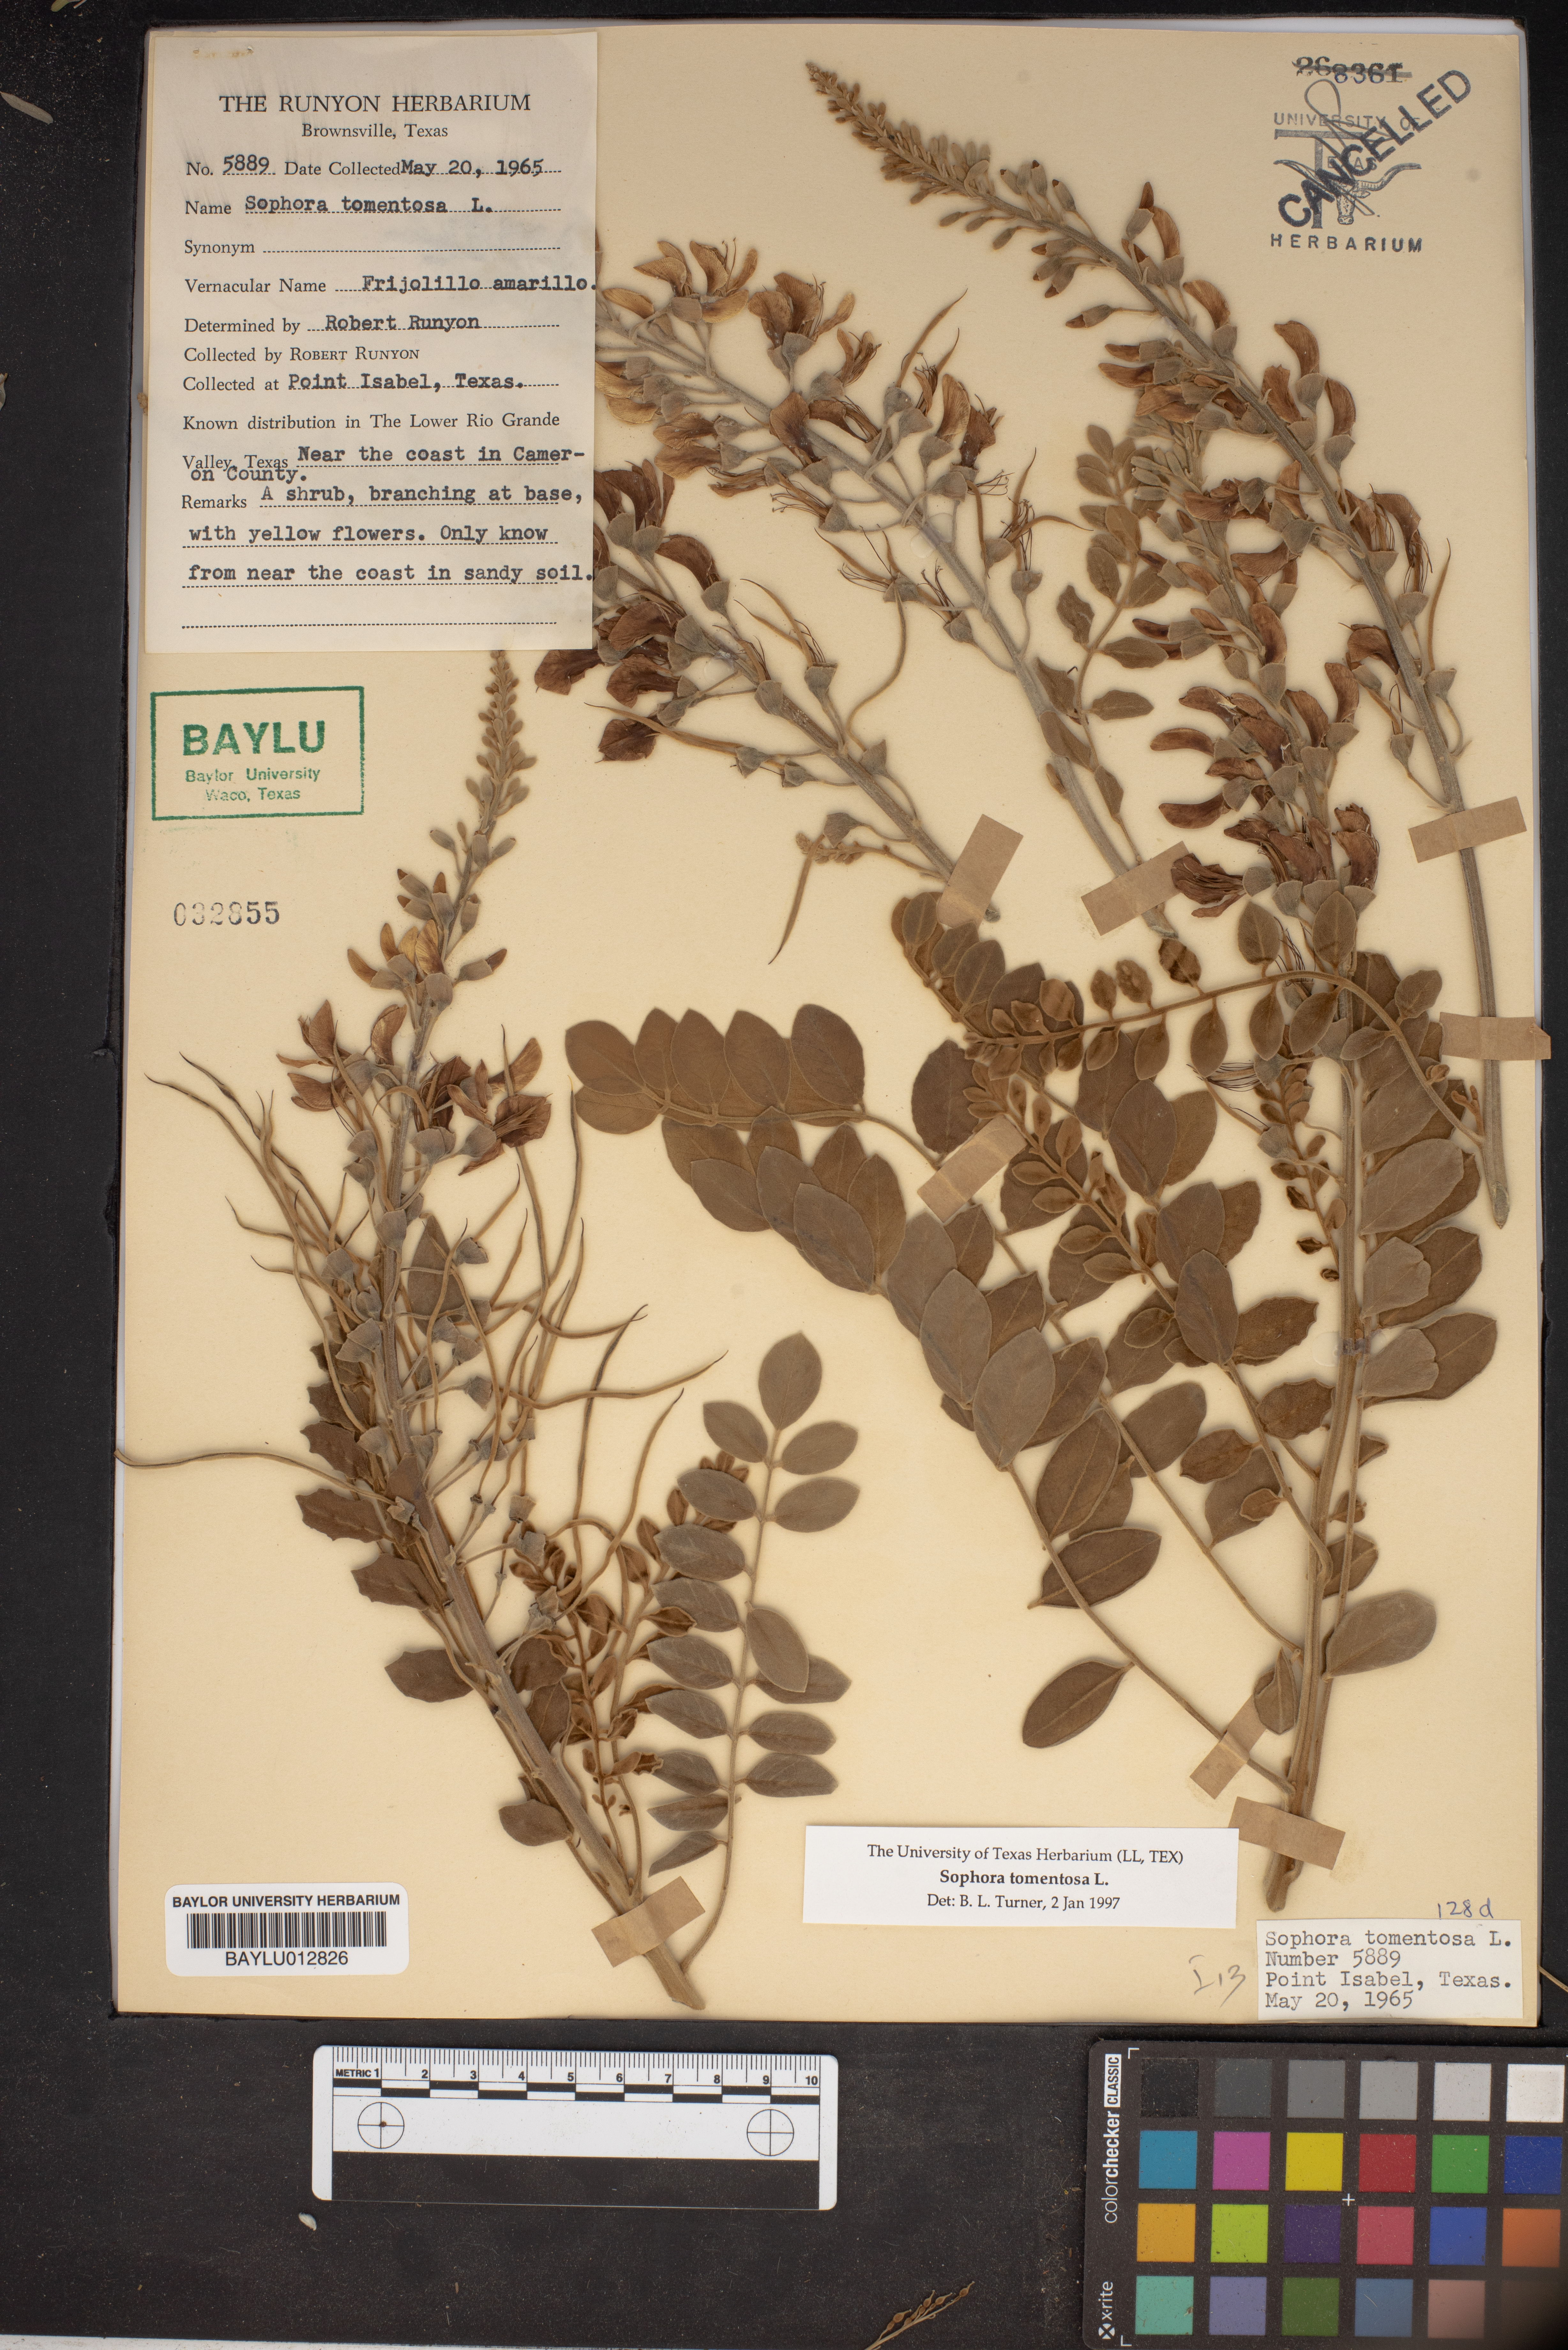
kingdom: Plantae
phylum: Tracheophyta
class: Magnoliopsida
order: Fabales
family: Fabaceae
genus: Sophora
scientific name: Sophora tomentosa
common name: Yellow necklacepod
